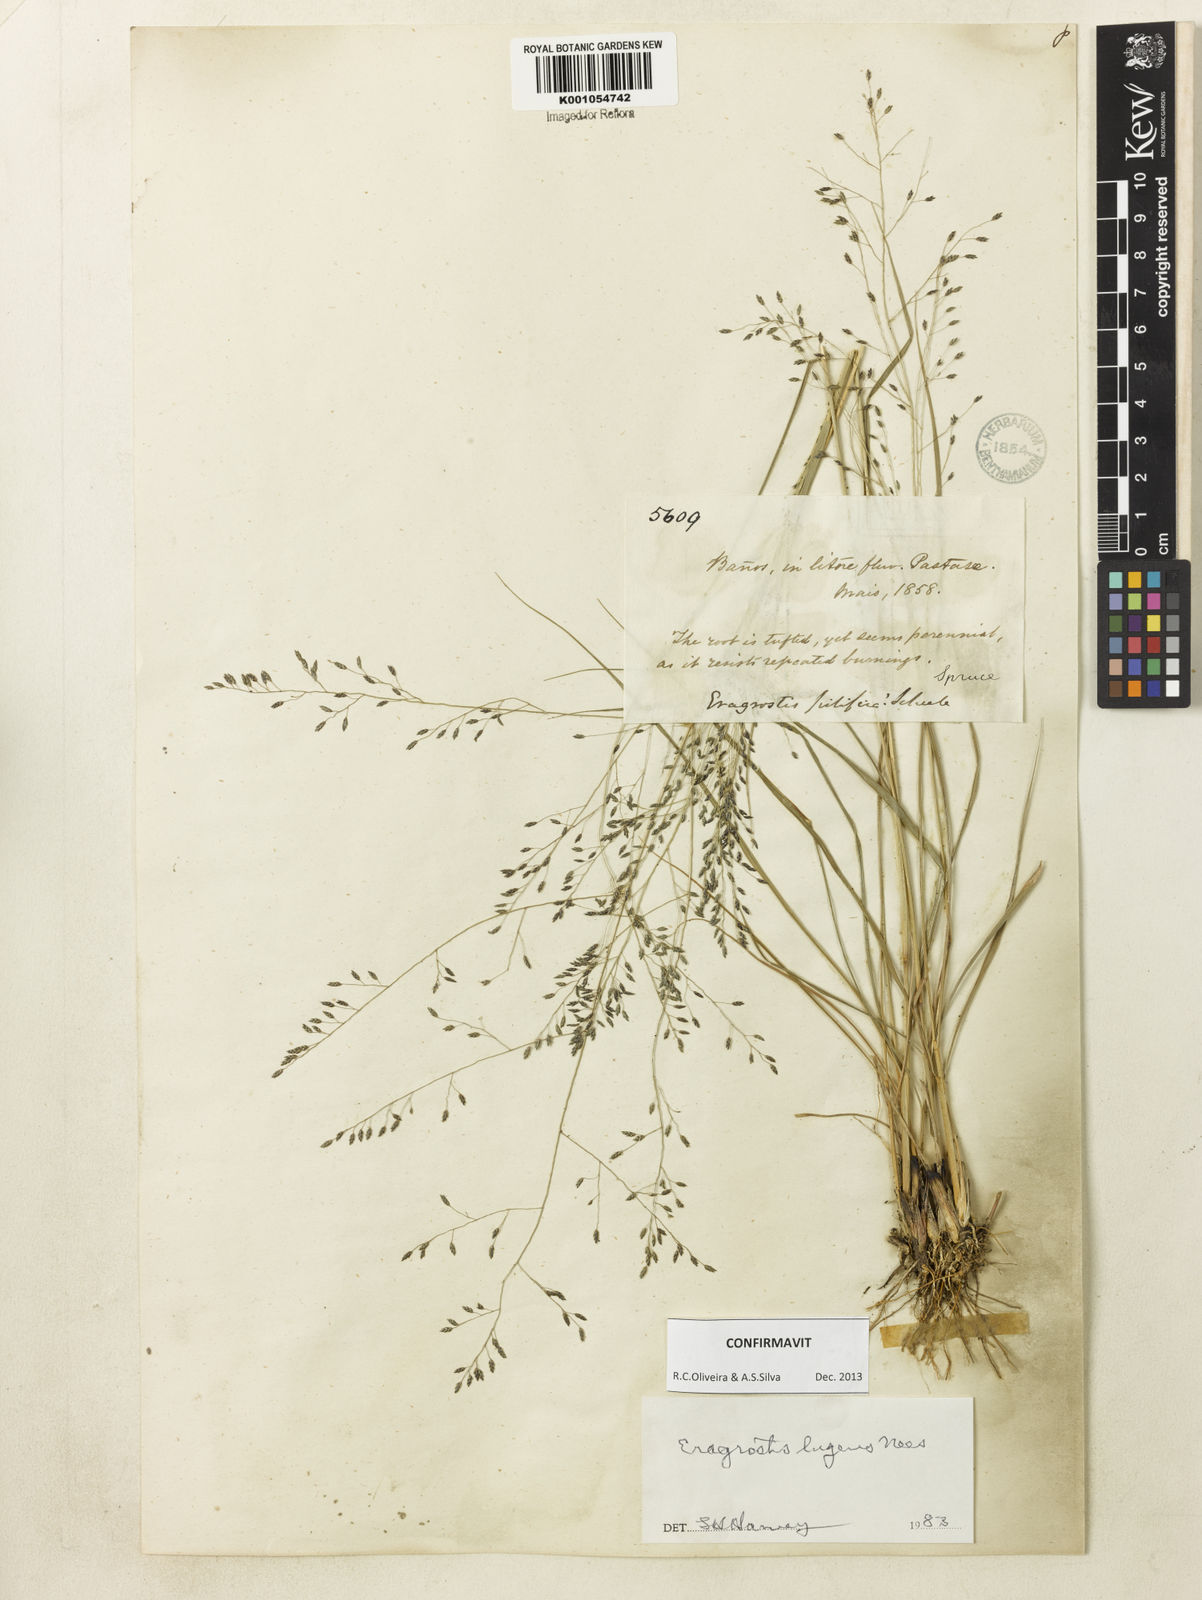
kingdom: Plantae
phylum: Tracheophyta
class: Liliopsida
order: Poales
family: Poaceae
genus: Eragrostis
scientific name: Eragrostis lugens
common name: Mourning love grass
